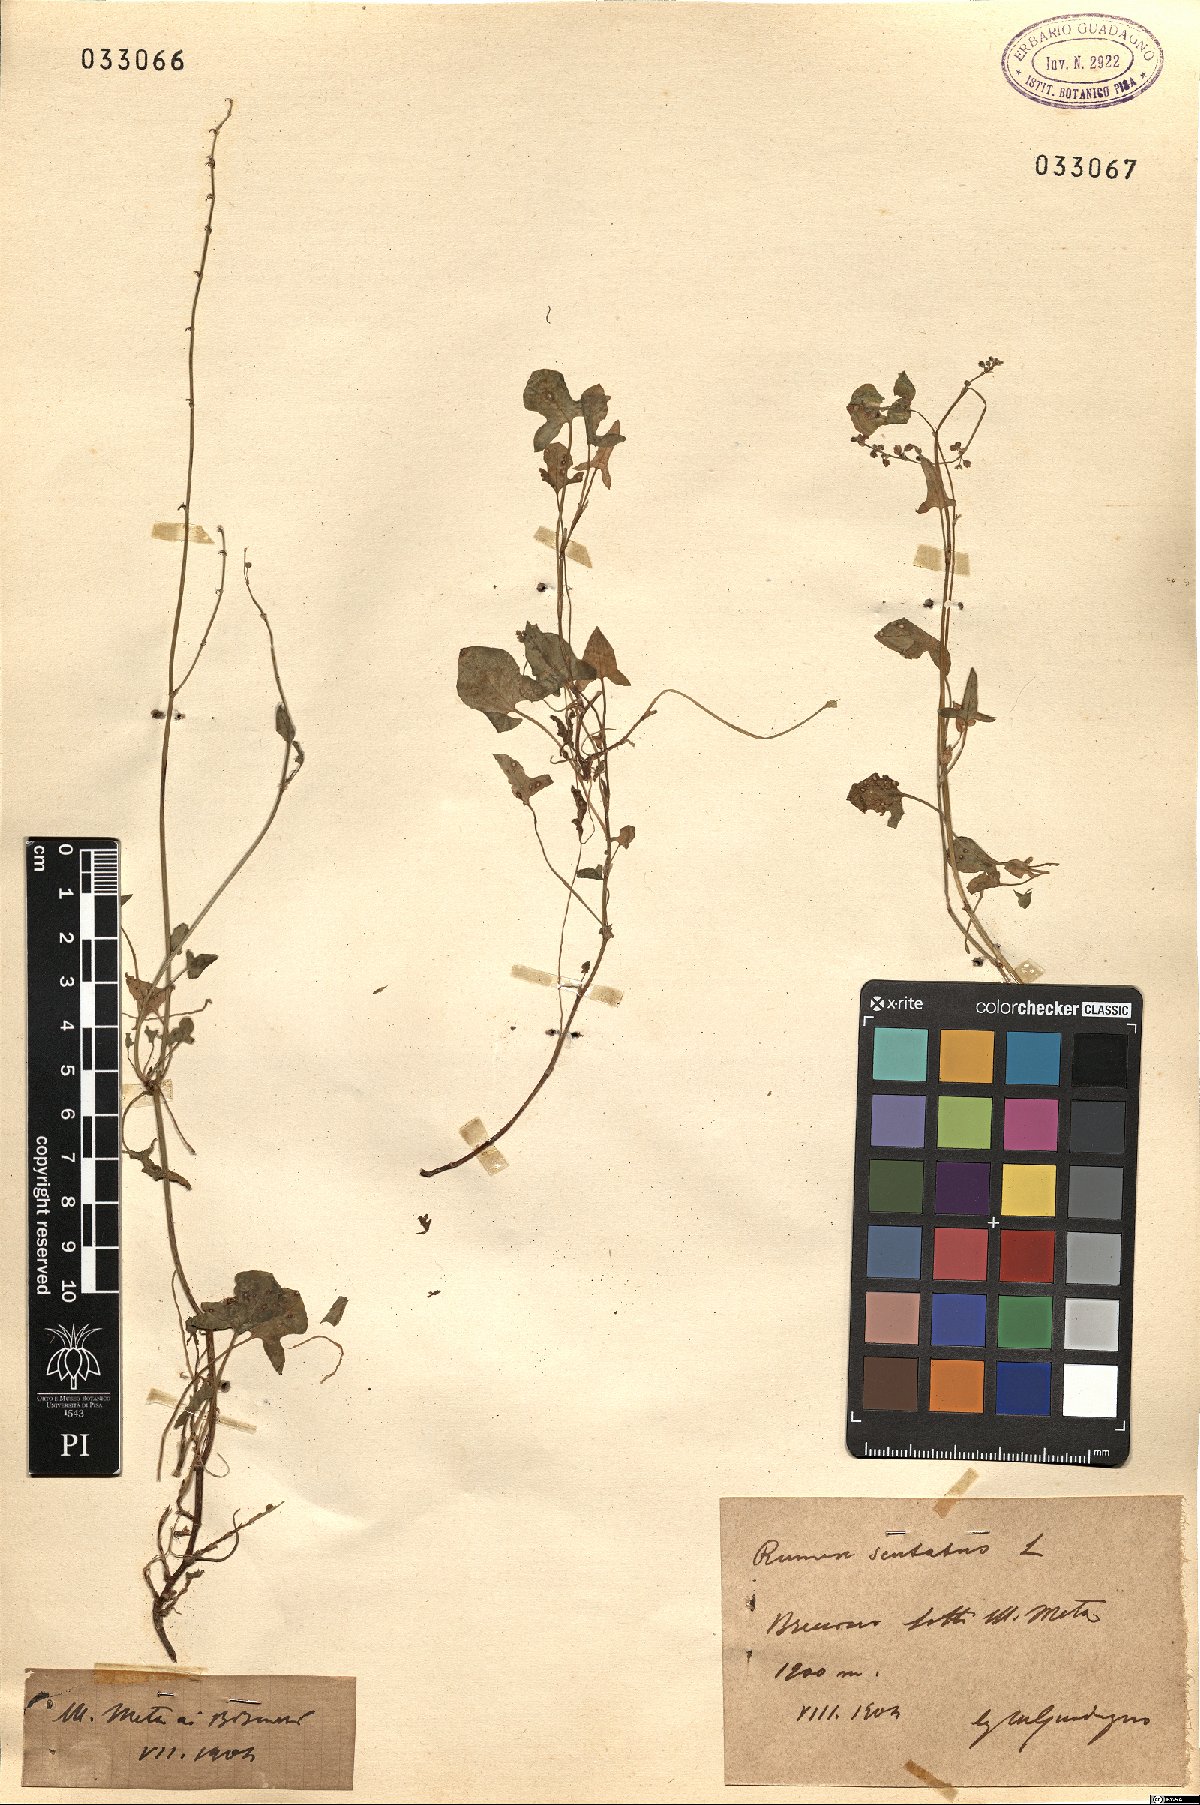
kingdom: Plantae
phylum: Tracheophyta
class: Magnoliopsida
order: Caryophyllales
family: Polygonaceae
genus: Rumex
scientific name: Rumex scutatus
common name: French sorrel
